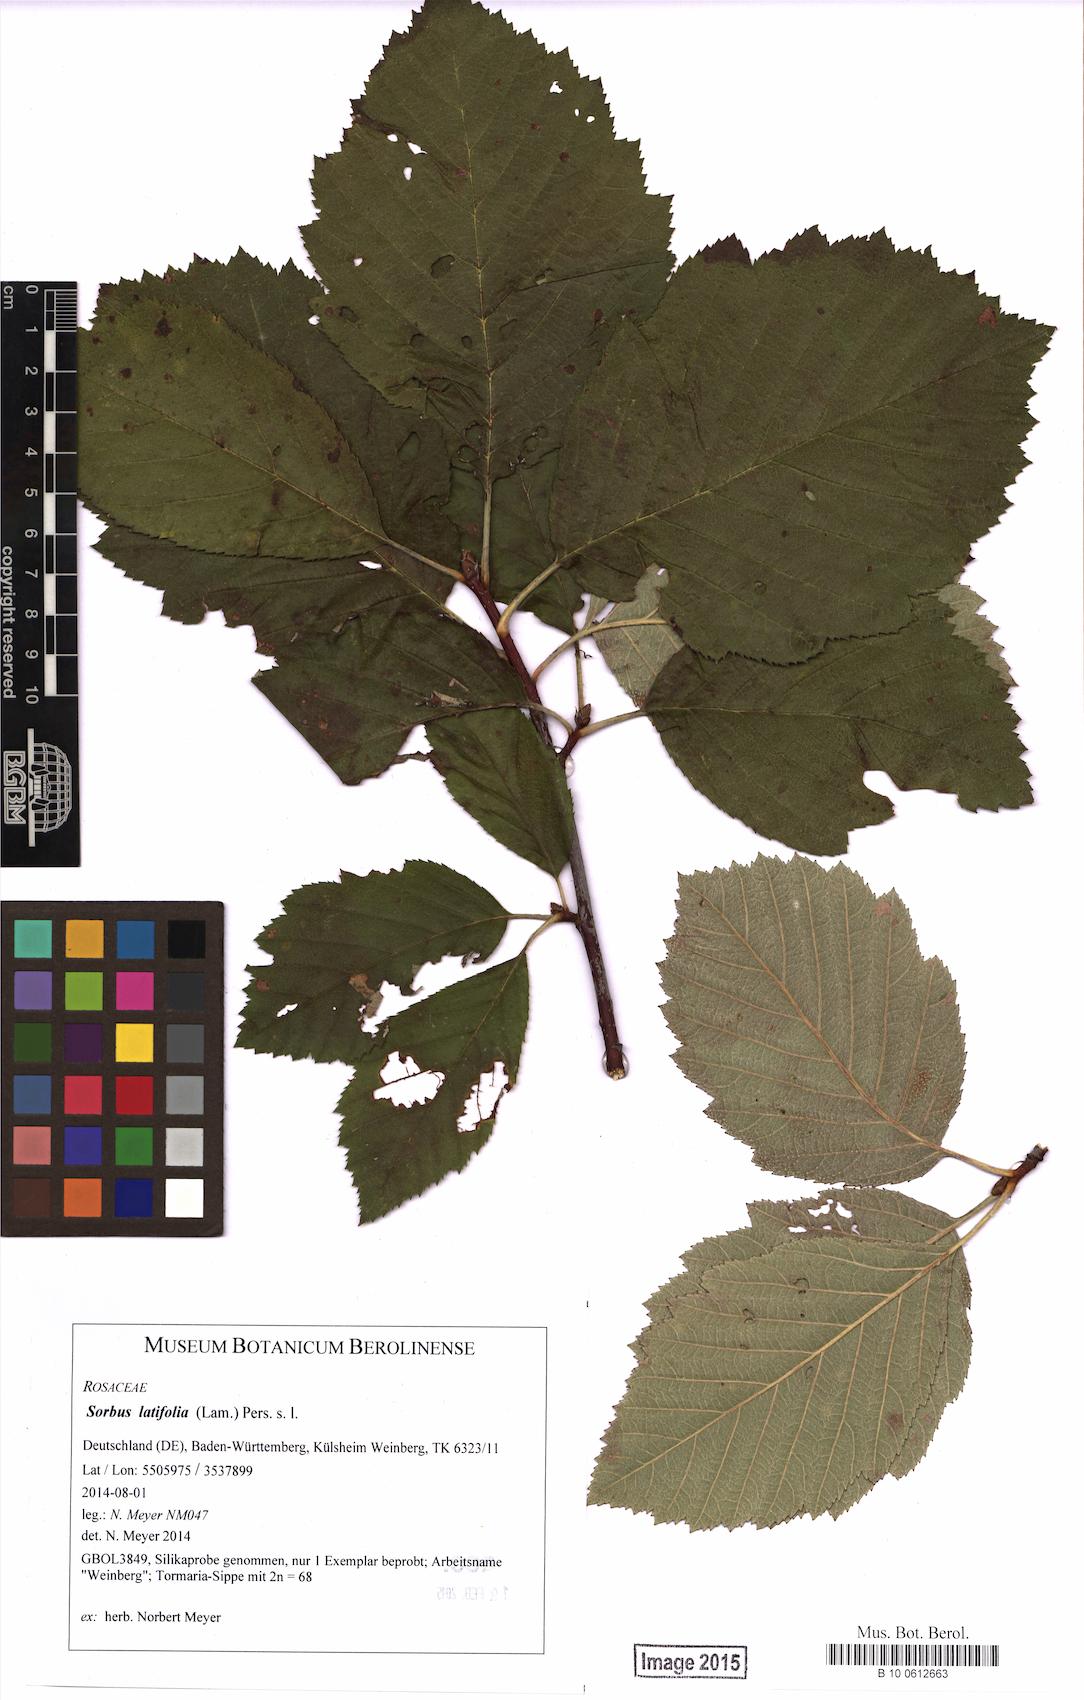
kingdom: Plantae
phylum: Tracheophyta
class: Magnoliopsida
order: Rosales
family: Rosaceae
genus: Karpatiosorbus
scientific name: Karpatiosorbus latifolia
